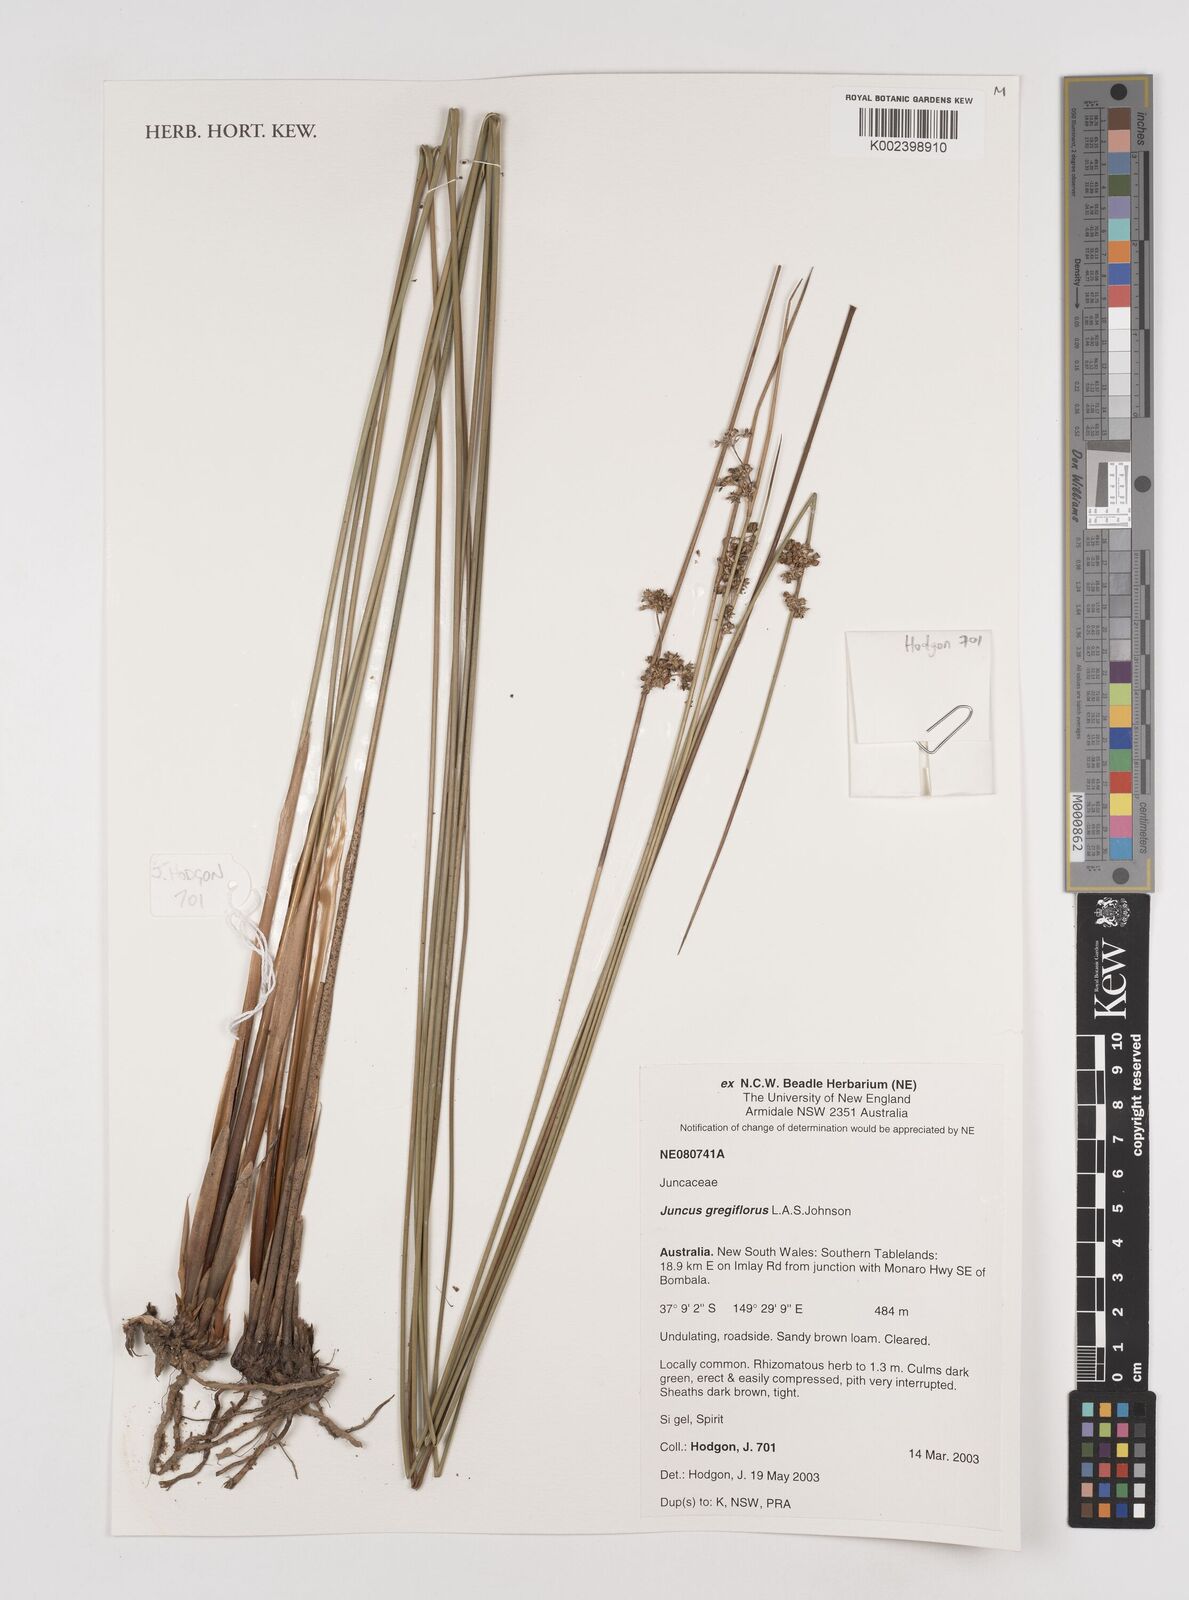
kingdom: Plantae
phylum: Tracheophyta
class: Liliopsida
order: Poales
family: Juncaceae
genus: Juncus
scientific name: Juncus gregiflorus
